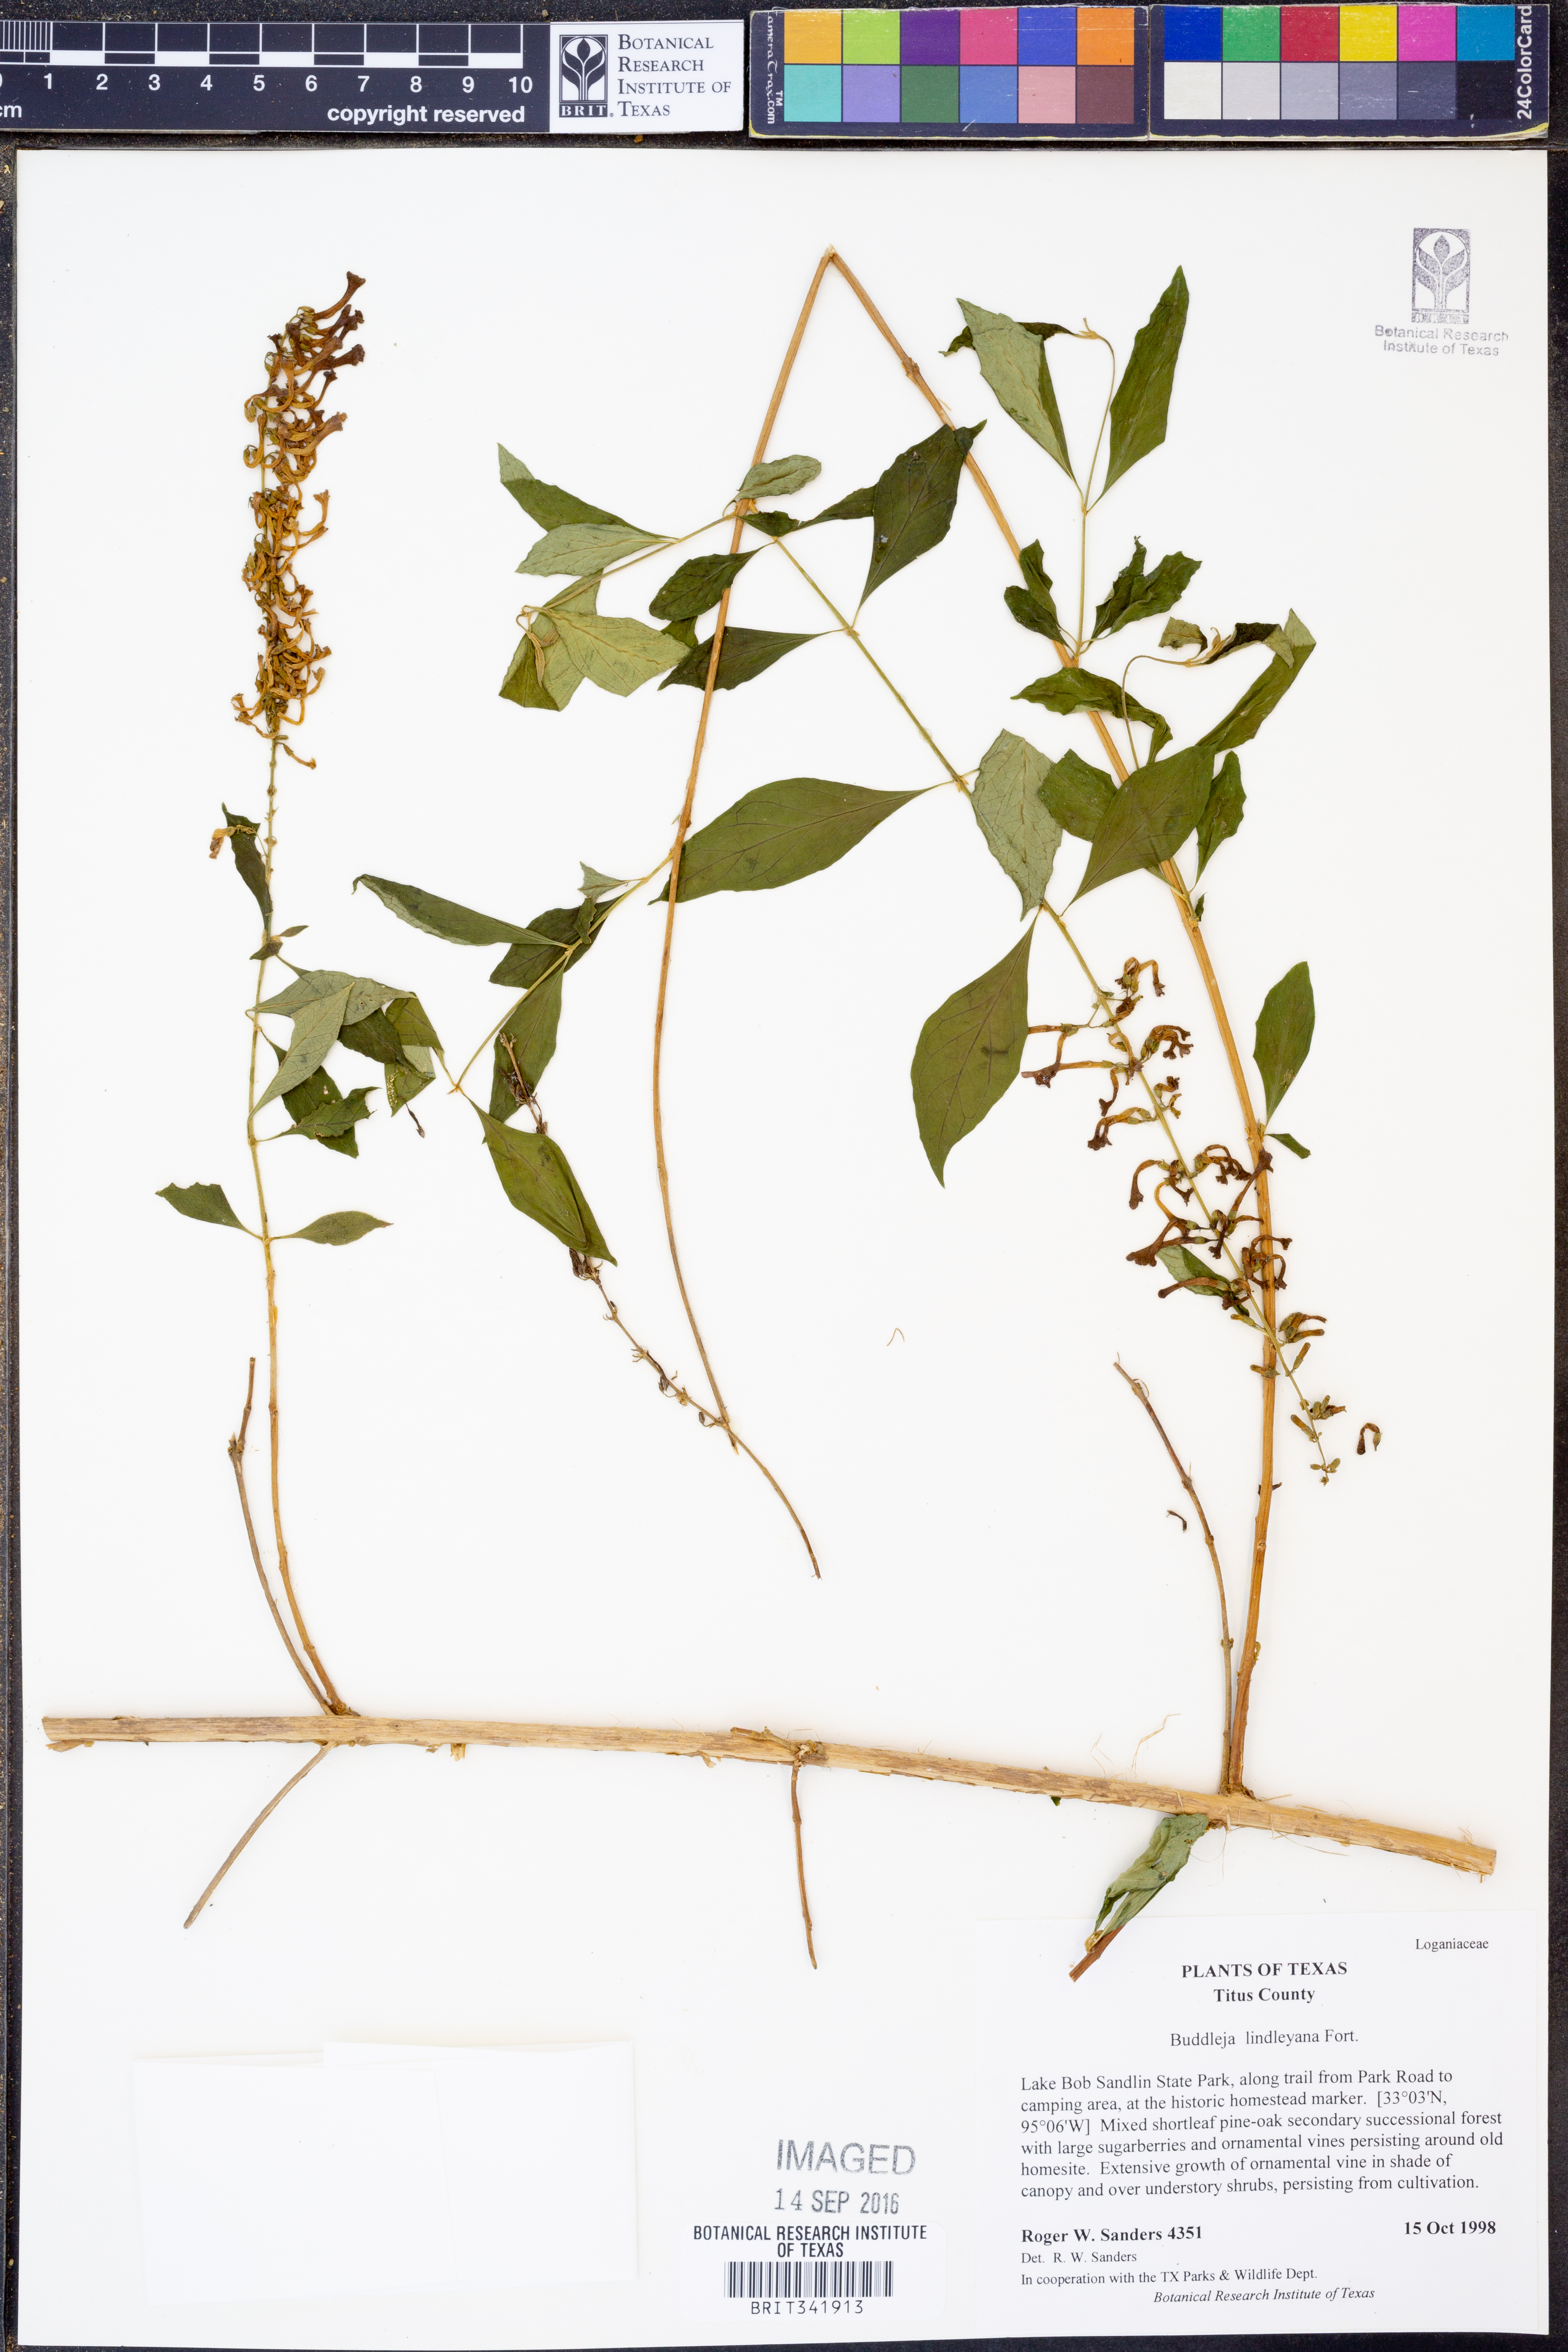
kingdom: Plantae
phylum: Tracheophyta
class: Magnoliopsida
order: Lamiales
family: Scrophulariaceae
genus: Buddleja
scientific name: Buddleja lindleyana
